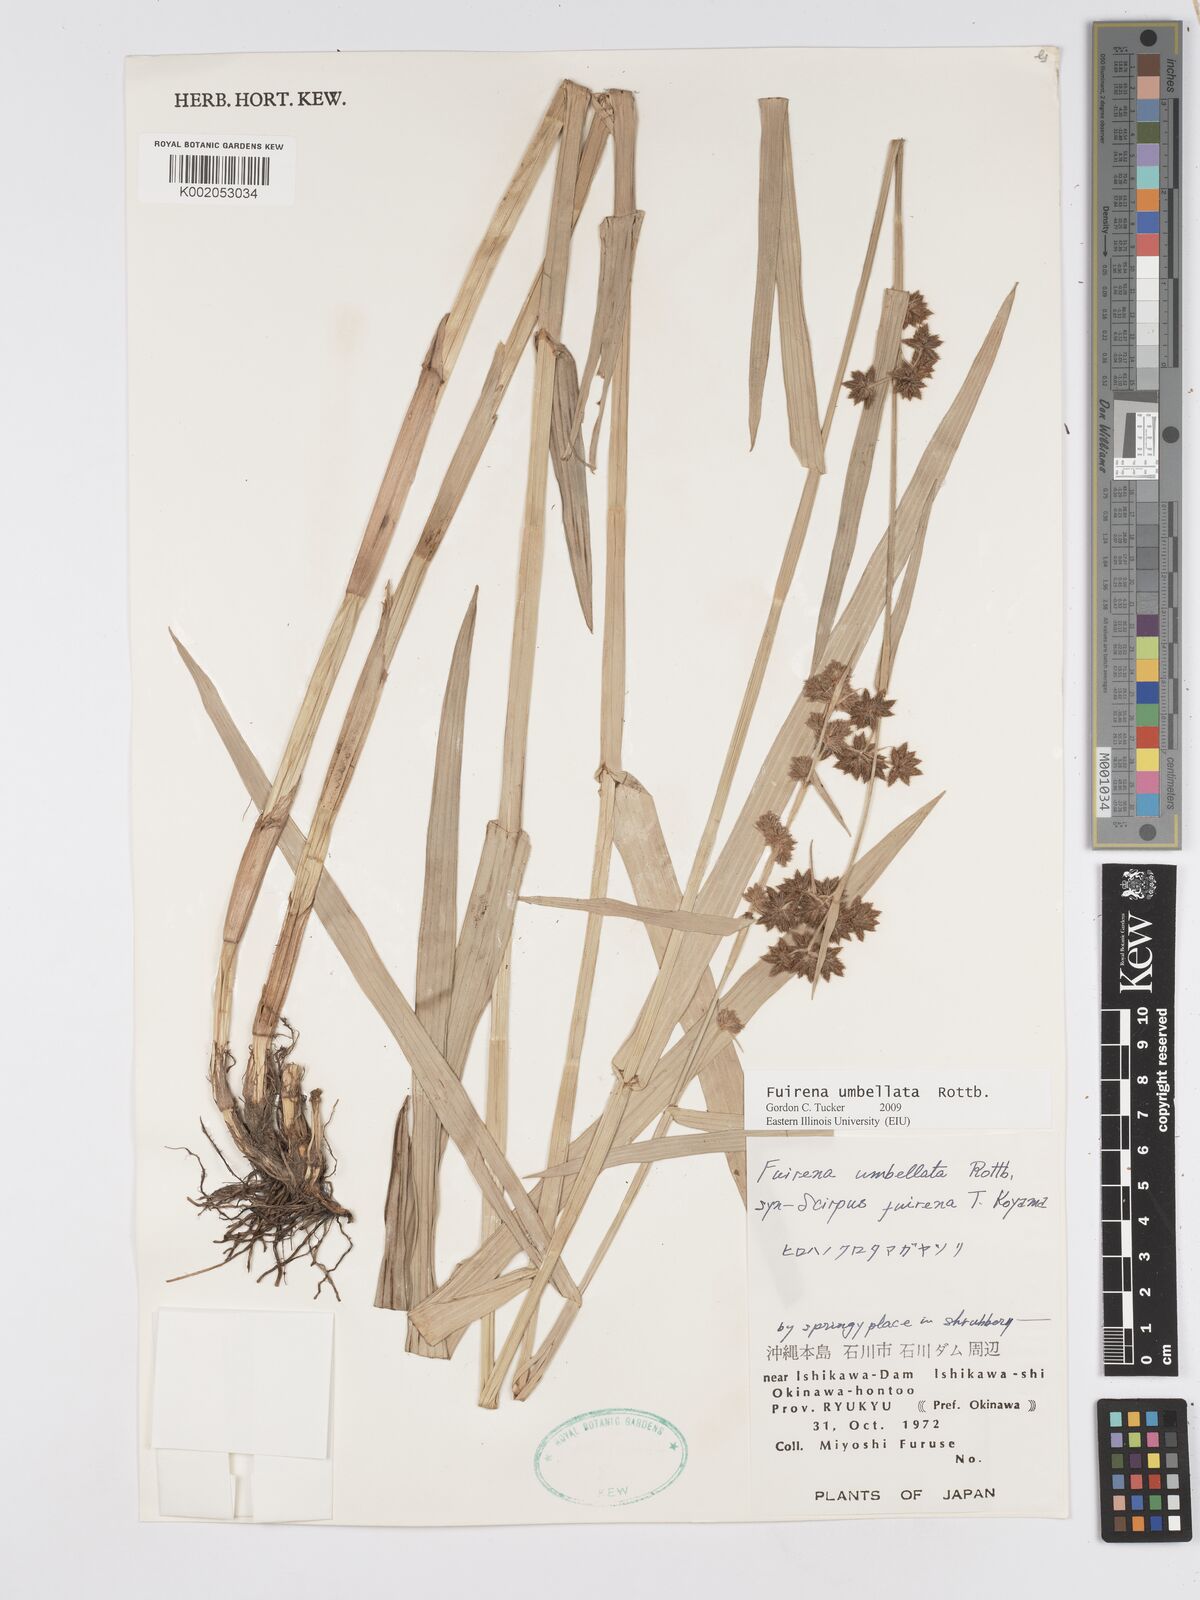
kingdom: Plantae
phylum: Tracheophyta
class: Liliopsida
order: Poales
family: Cyperaceae
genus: Fuirena
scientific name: Fuirena umbellata
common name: Yefen
